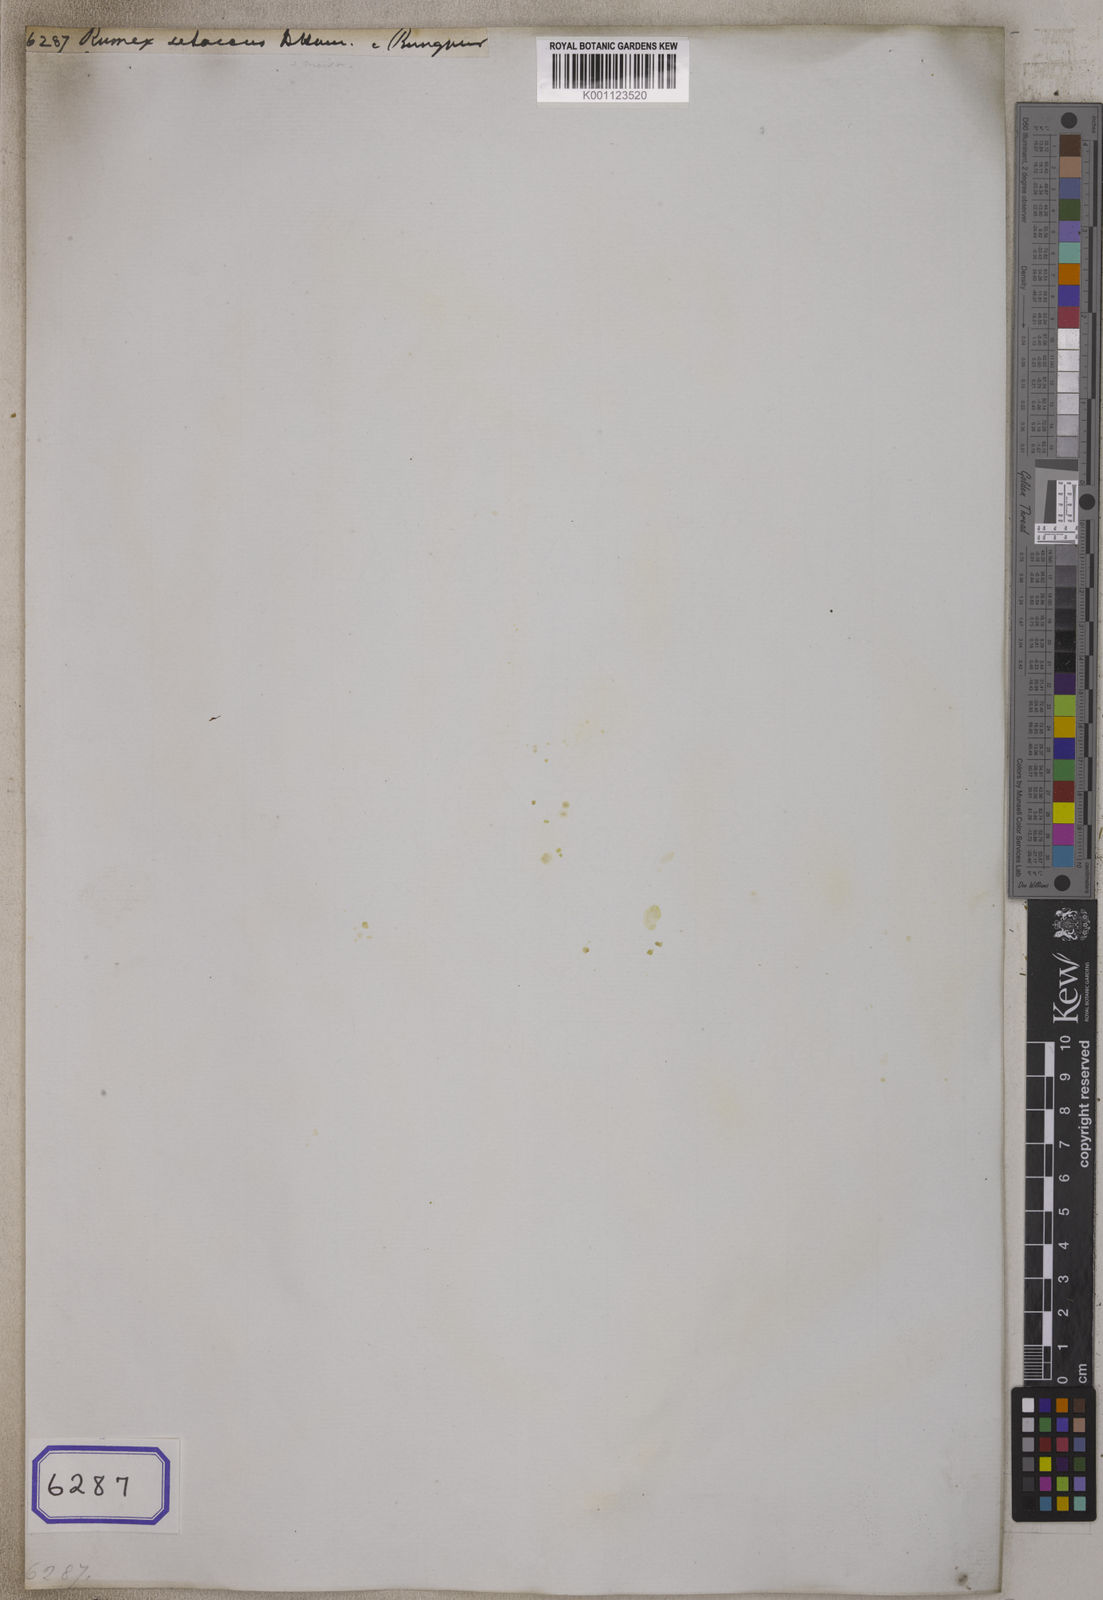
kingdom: Plantae
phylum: Tracheophyta
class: Magnoliopsida
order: Caryophyllales
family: Polygonaceae
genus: Rumex
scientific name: Rumex
